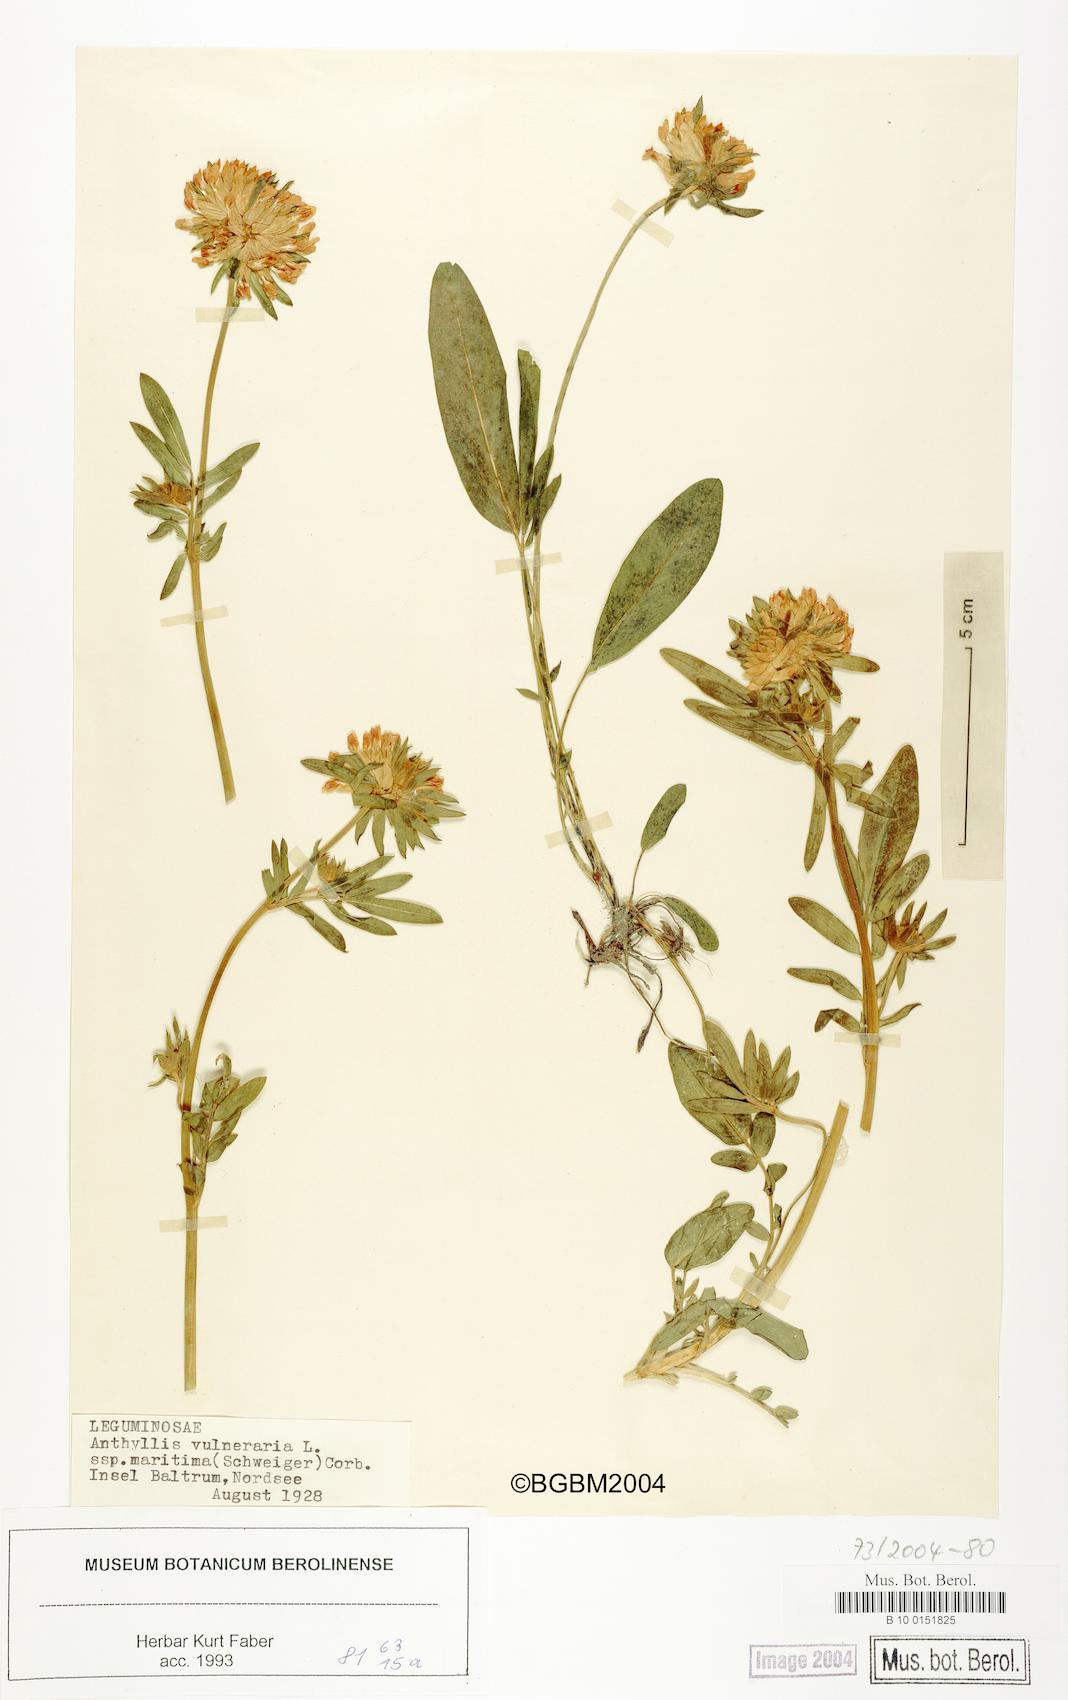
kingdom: Plantae
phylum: Tracheophyta
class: Magnoliopsida
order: Fabales
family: Fabaceae
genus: Anthyllis
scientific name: Anthyllis vulneraria
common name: Kidney vetch
